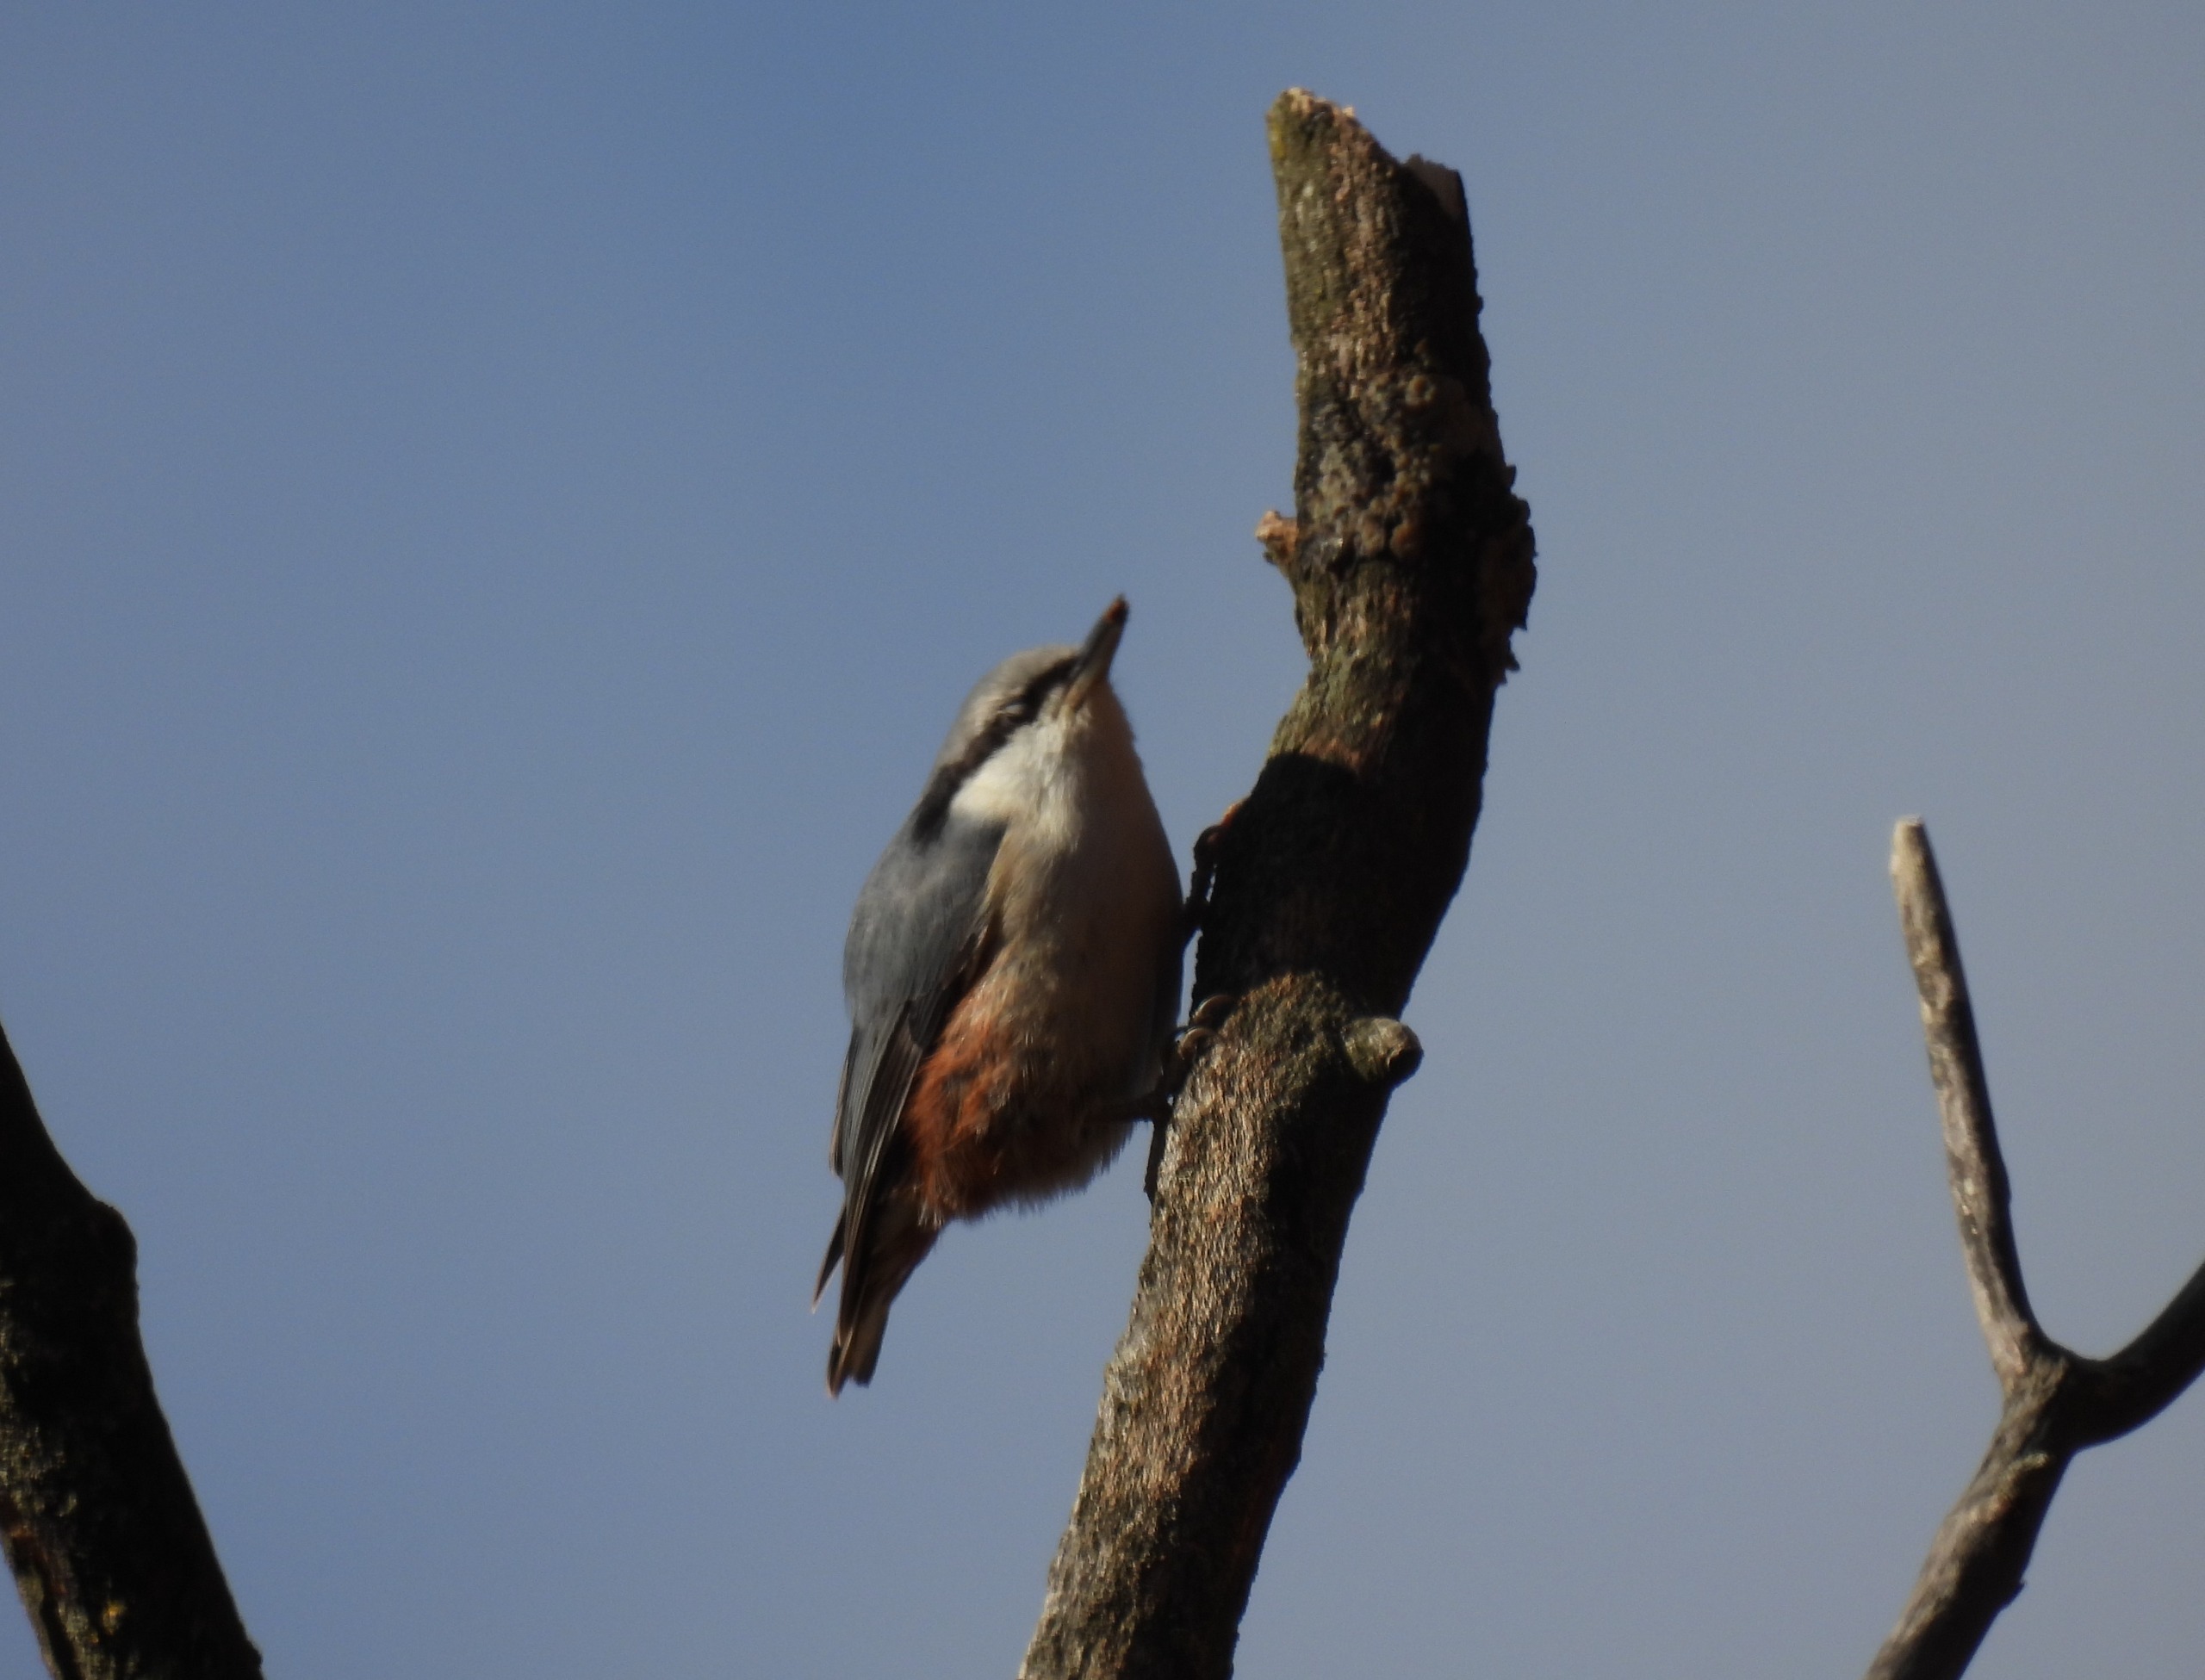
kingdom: Animalia
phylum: Chordata
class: Aves
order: Passeriformes
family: Sittidae
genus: Sitta
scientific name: Sitta europaea
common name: Spætmejse
